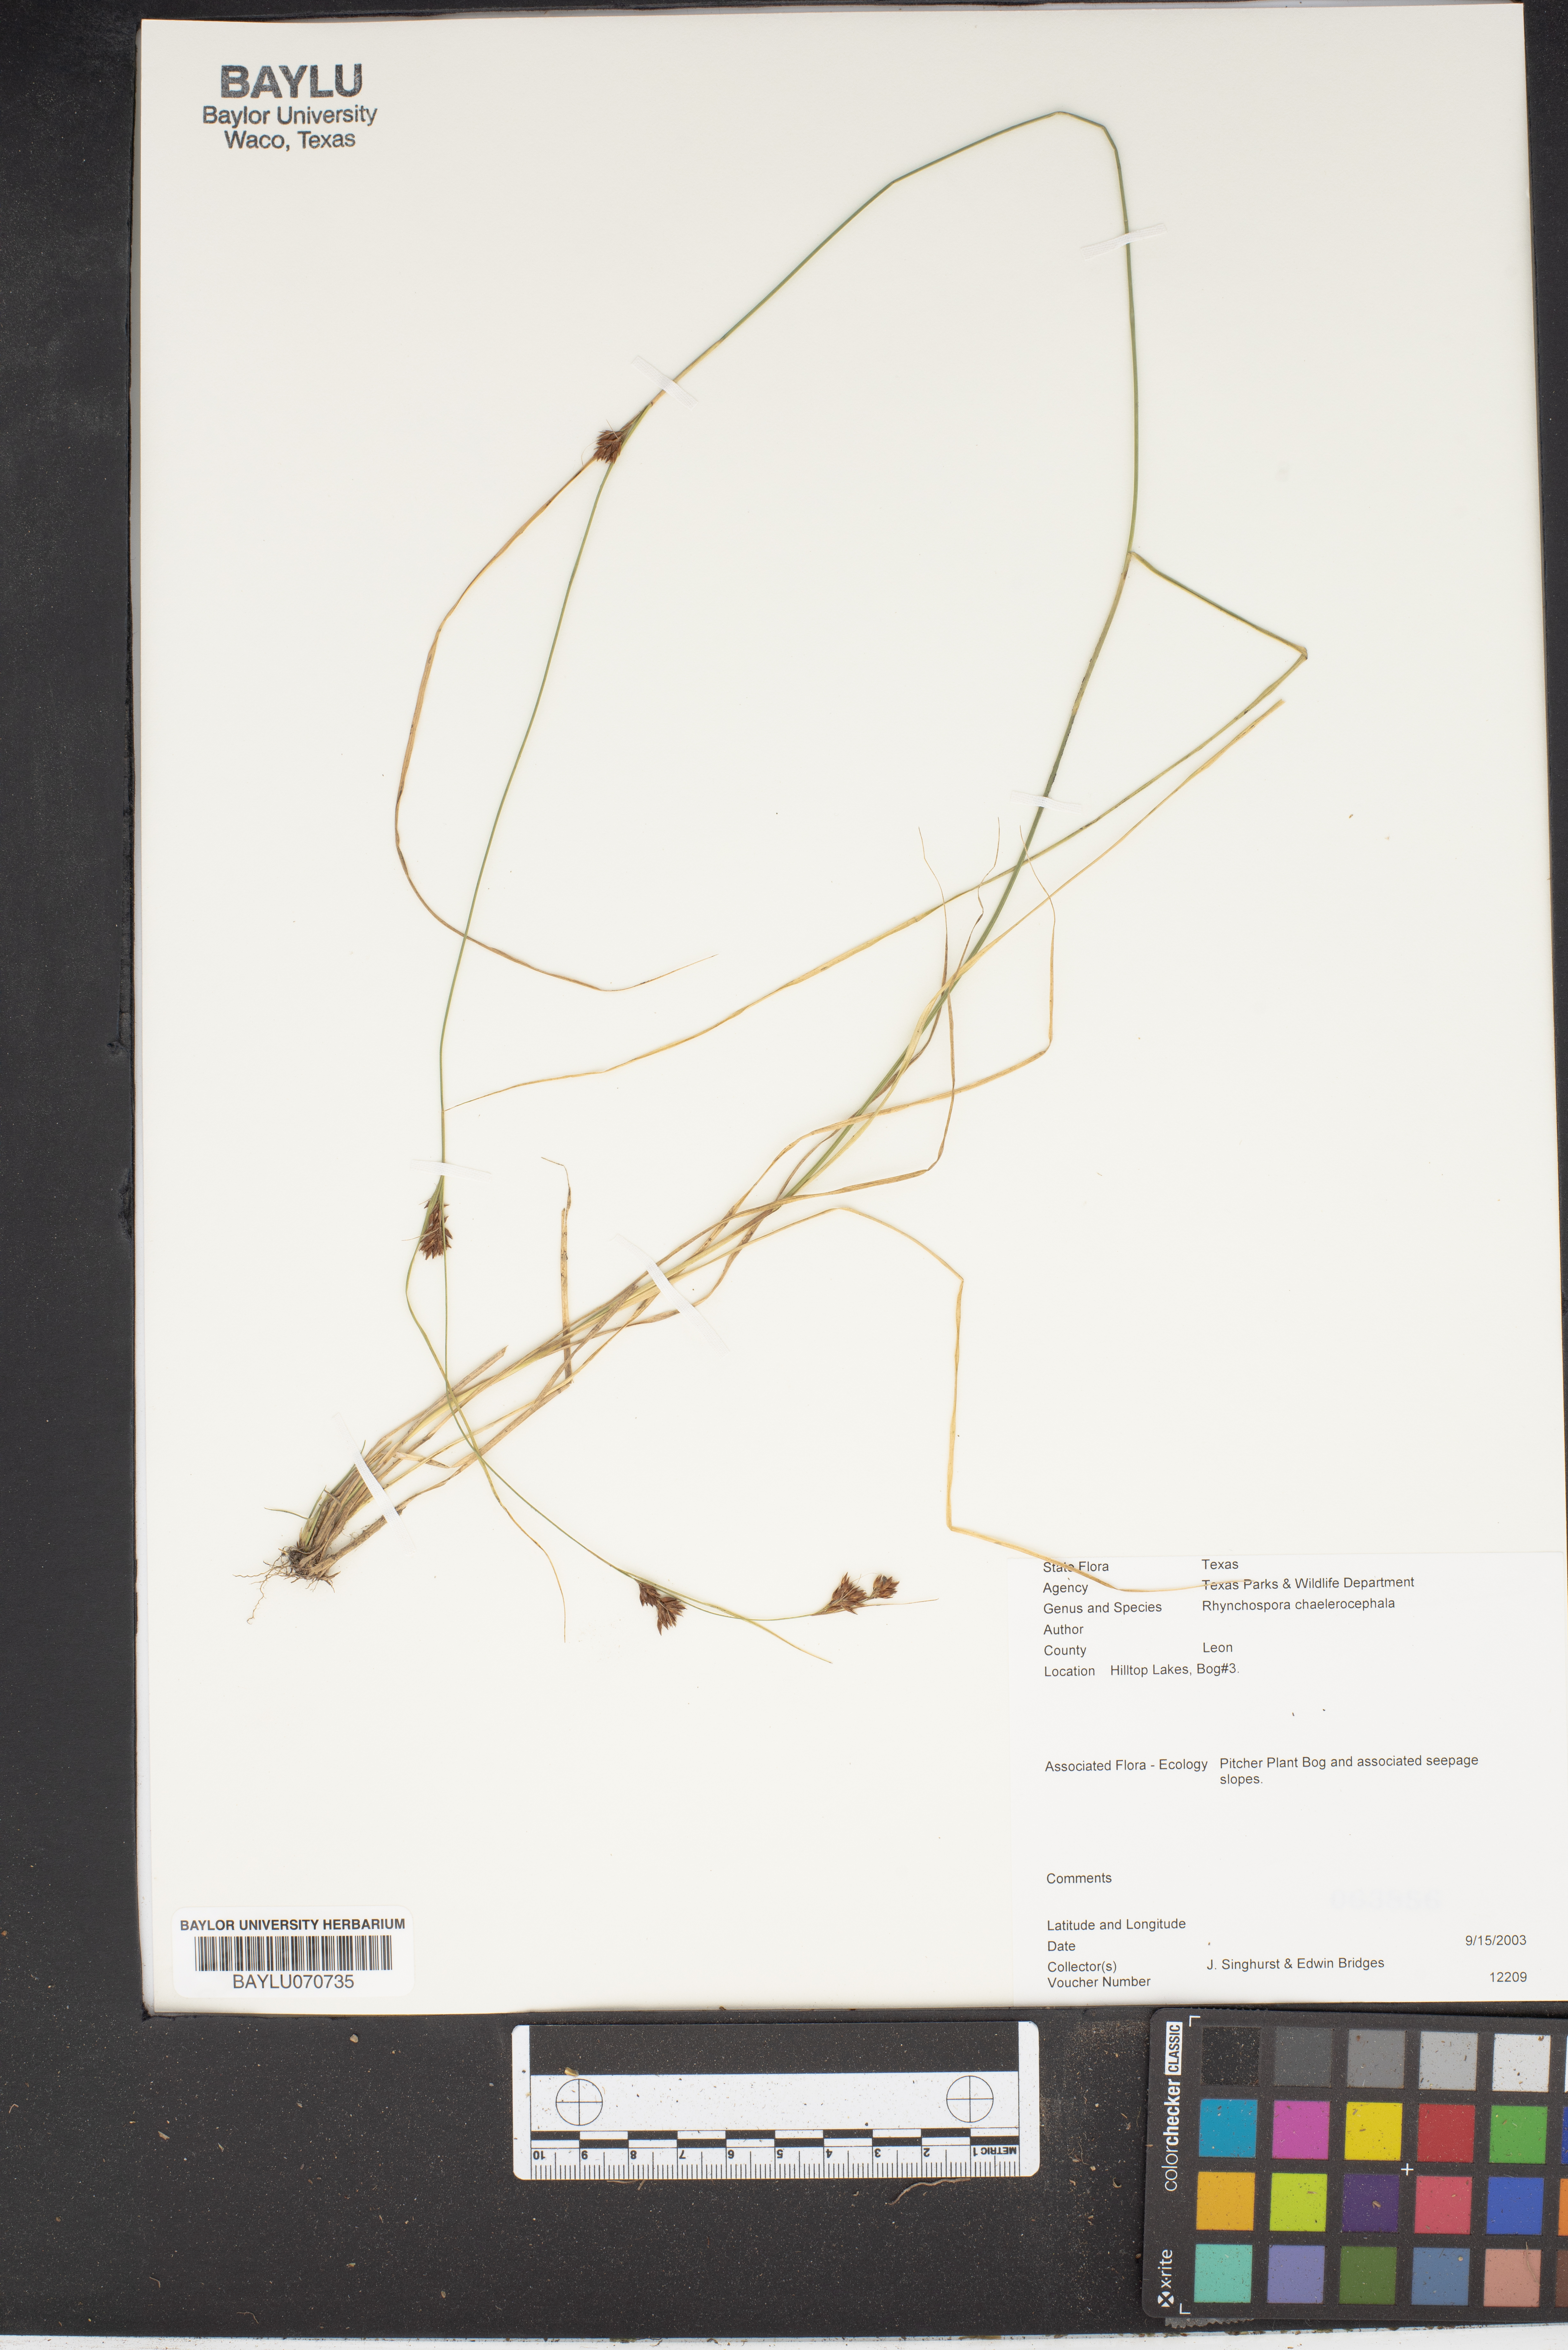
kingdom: Plantae
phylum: Tracheophyta
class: Liliopsida
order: Poales
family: Cyperaceae
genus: Rhynchospora
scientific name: Rhynchospora chalarocephala
